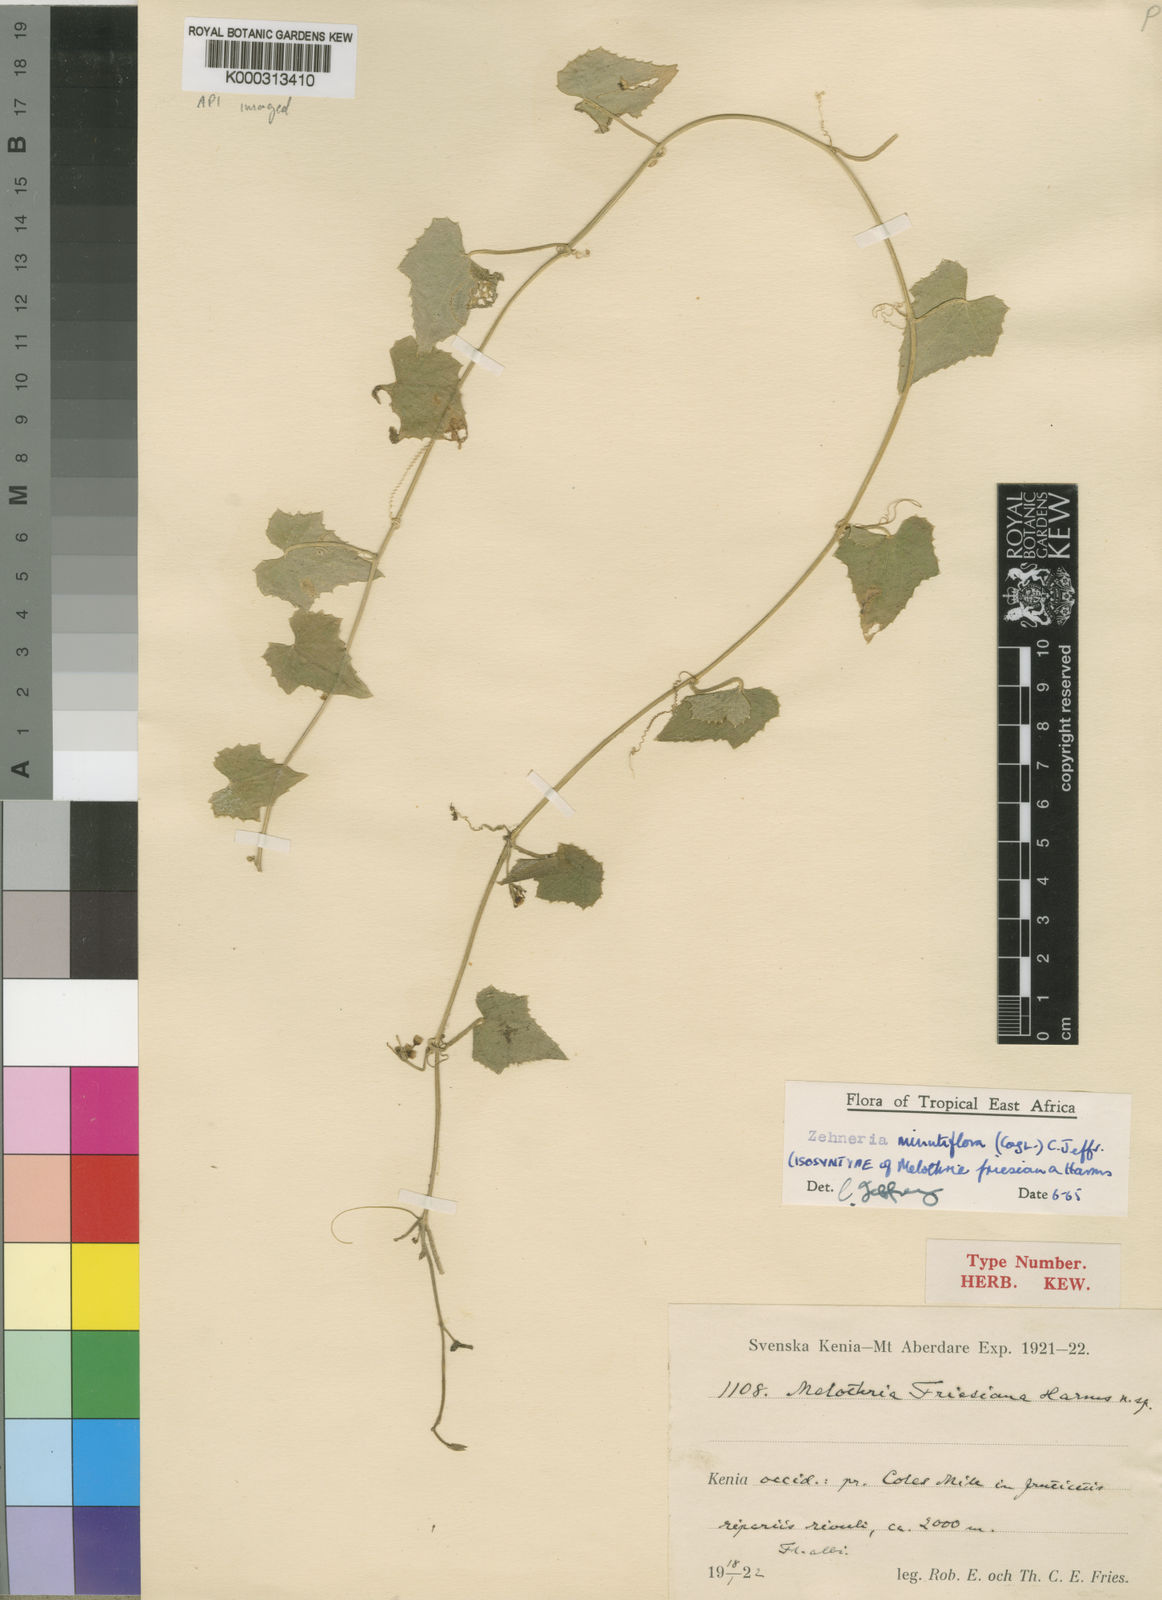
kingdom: Plantae
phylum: Tracheophyta
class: Magnoliopsida
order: Cucurbitales
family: Cucurbitaceae
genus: Zehneria
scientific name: Zehneria minutiflora
